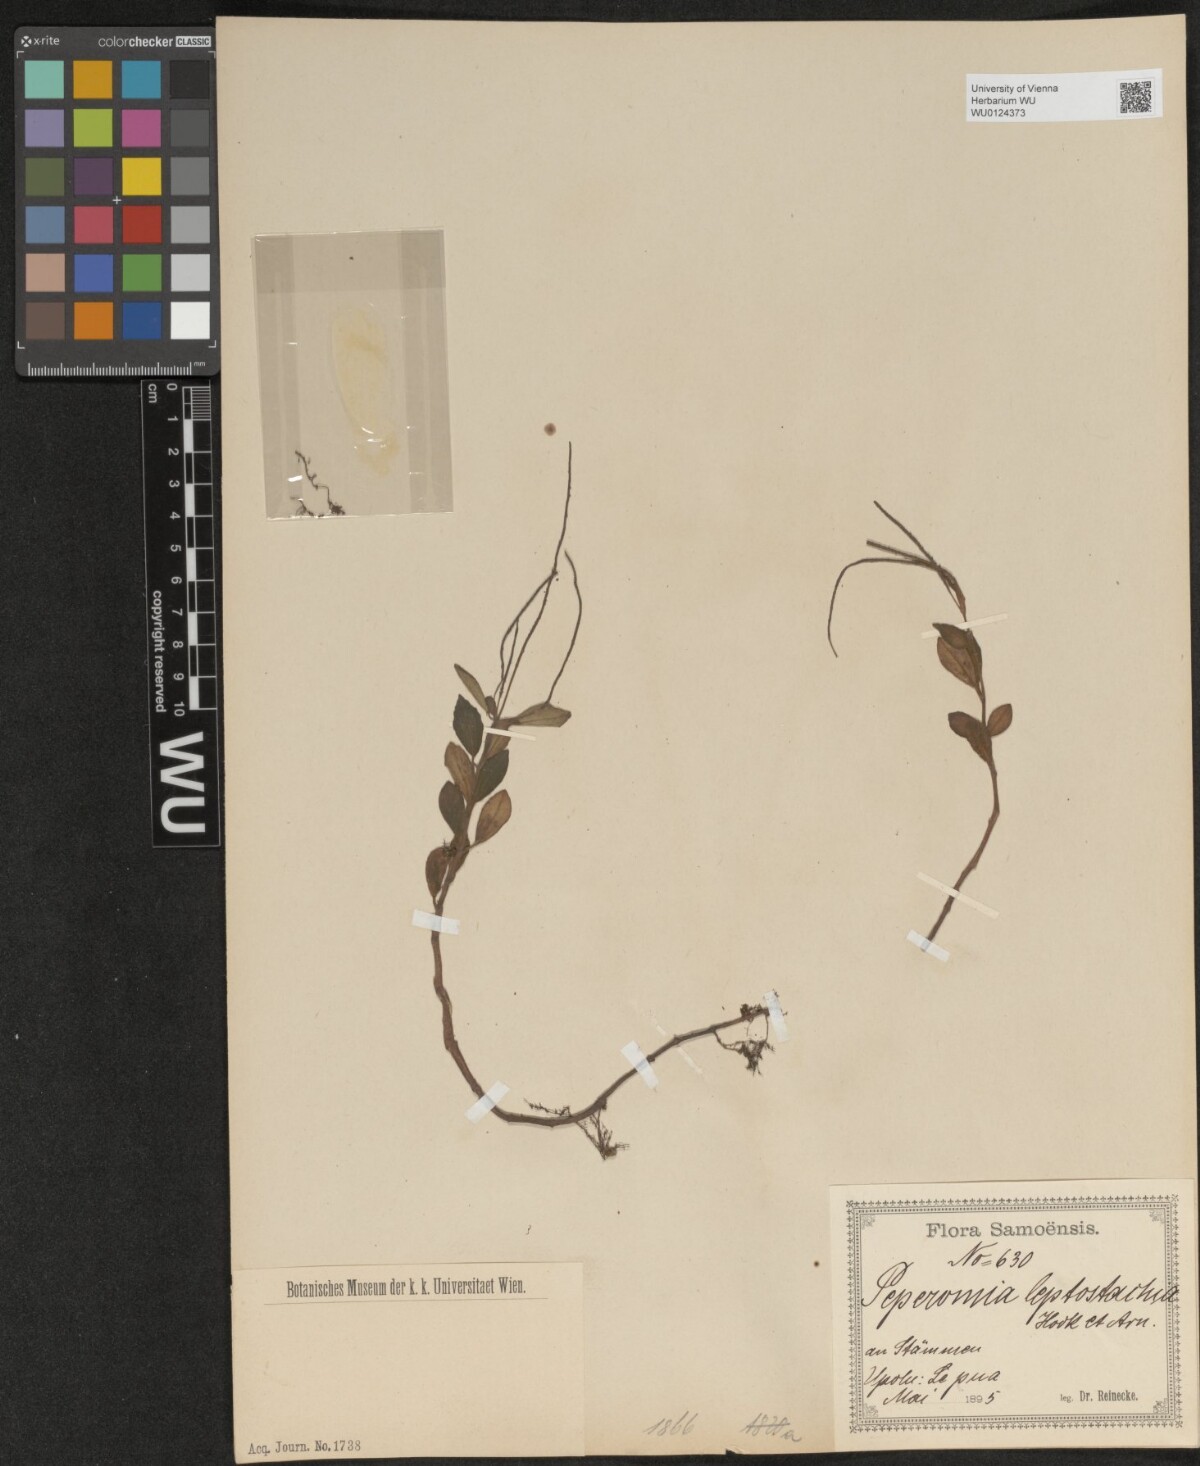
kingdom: Plantae
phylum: Tracheophyta
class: Magnoliopsida
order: Piperales
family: Piperaceae
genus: Peperomia
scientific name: Peperomia leptostachya
